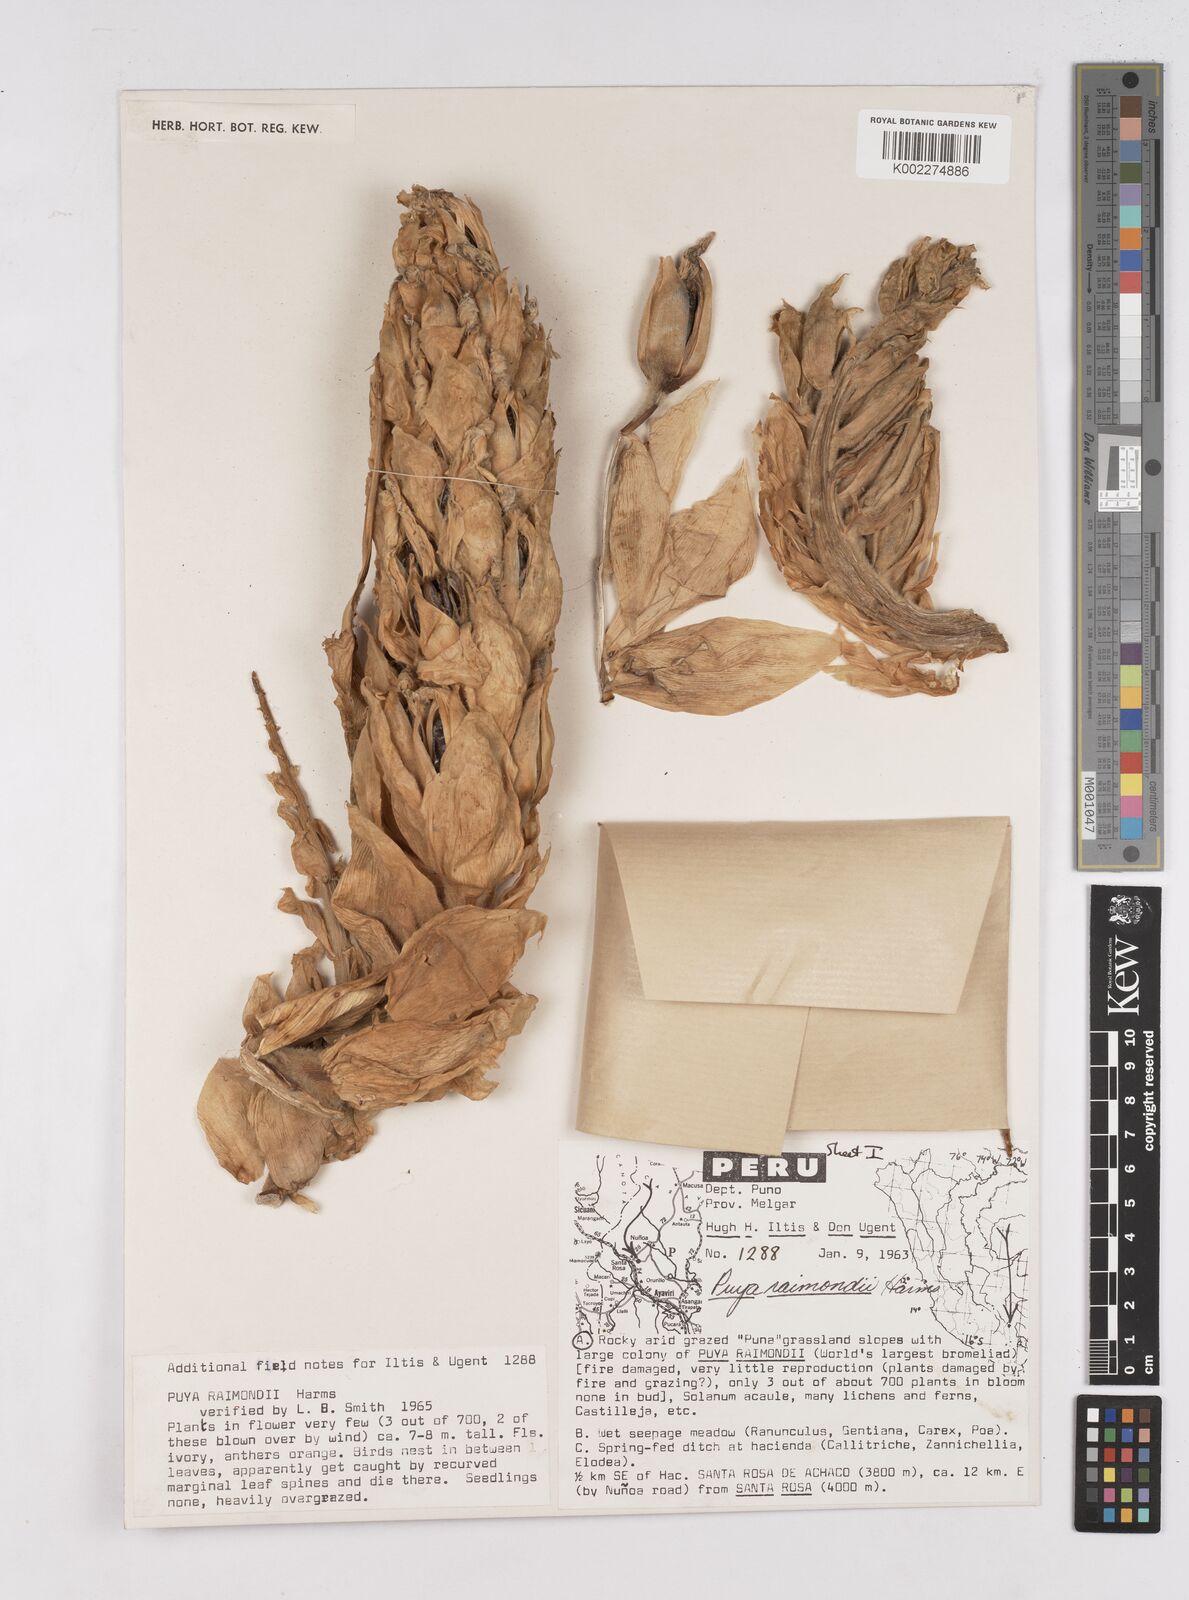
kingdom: Plantae
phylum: Tracheophyta
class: Liliopsida
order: Poales
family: Bromeliaceae
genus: Puya
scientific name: Puya raimondii
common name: Queen of the andes
